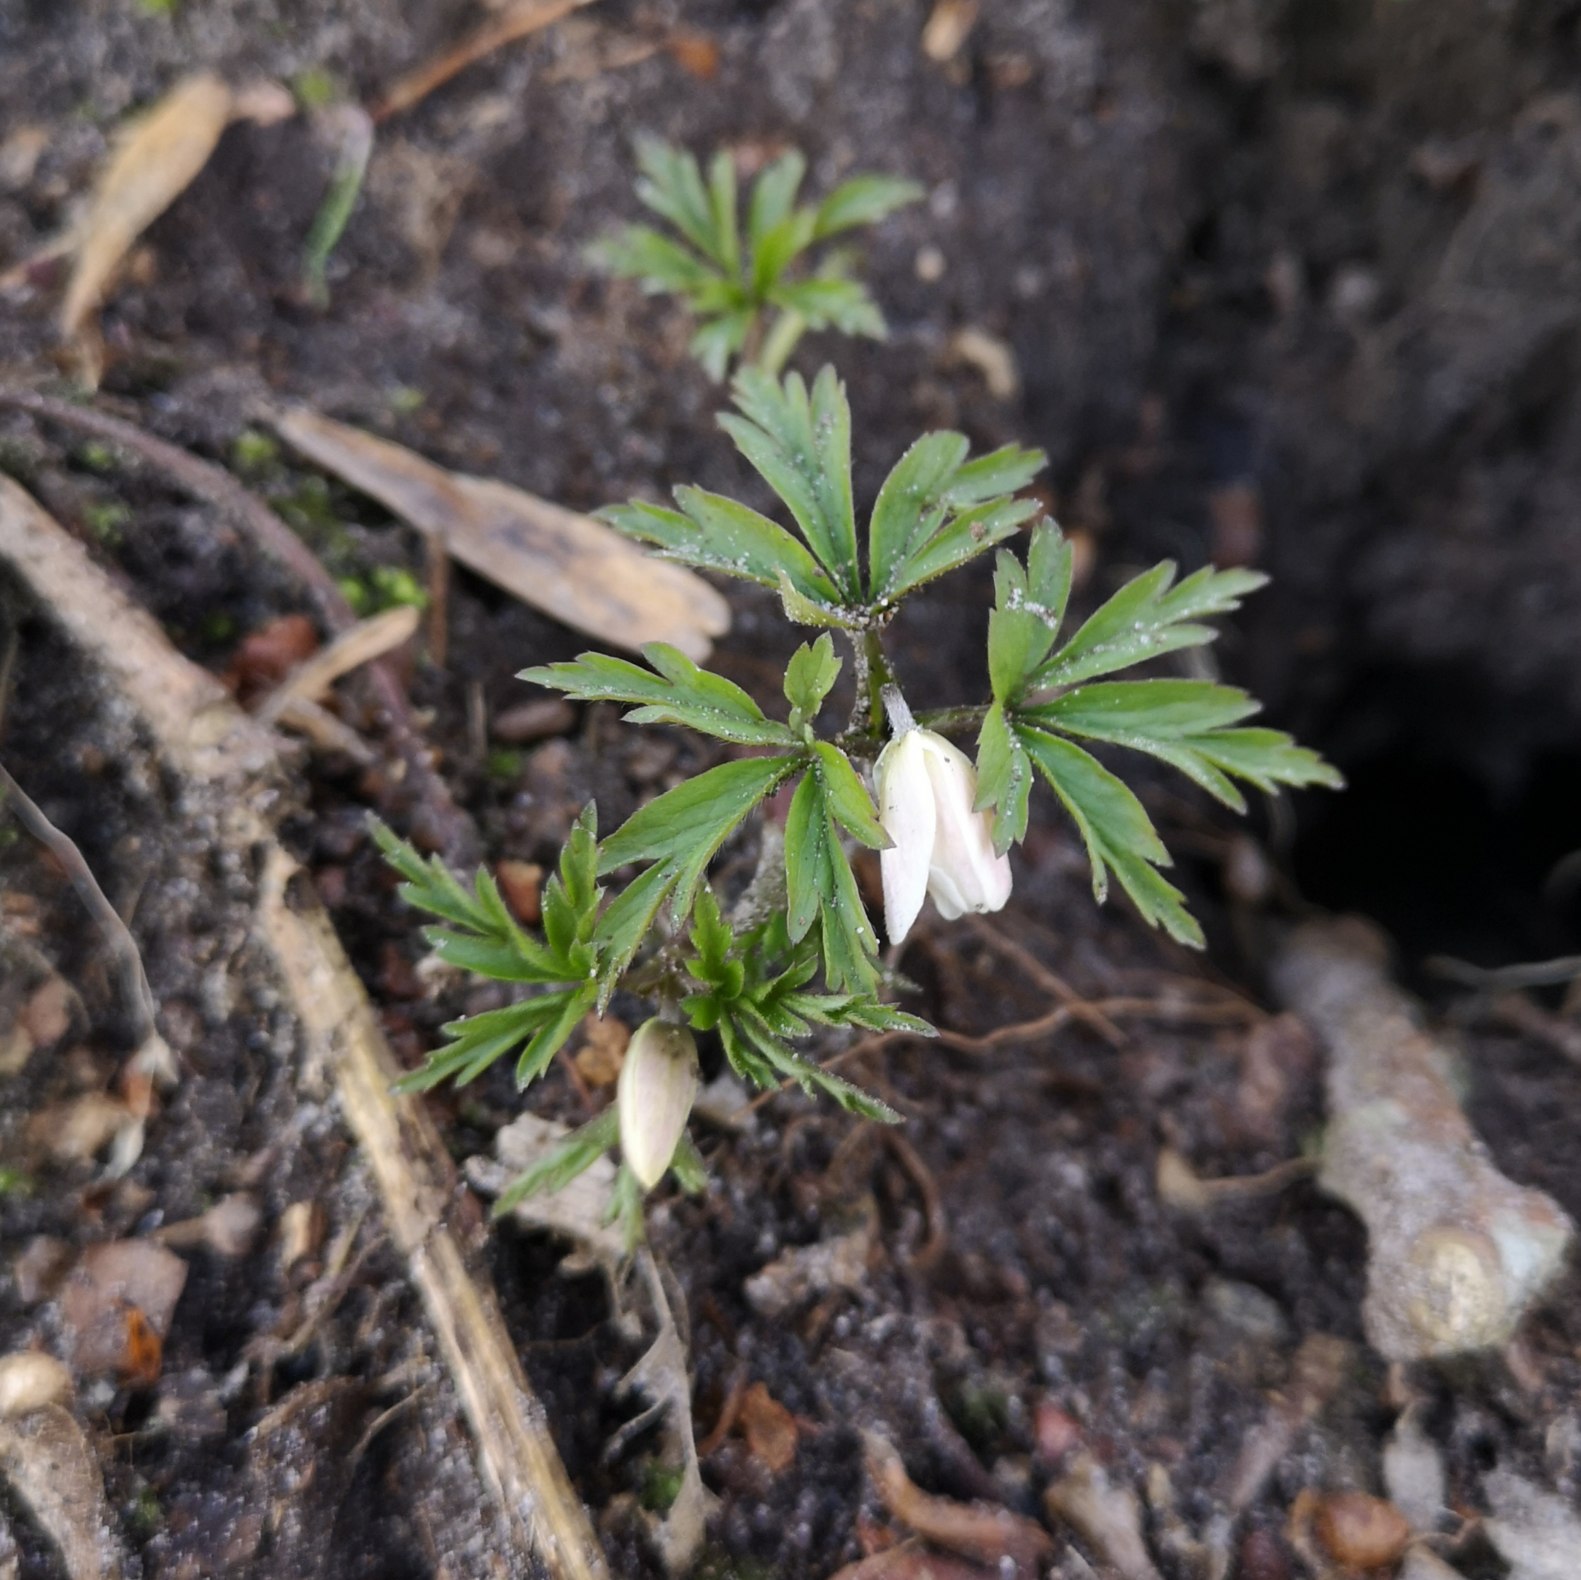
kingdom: Plantae
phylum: Tracheophyta
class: Magnoliopsida
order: Ranunculales
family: Ranunculaceae
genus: Anemone
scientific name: Anemone nemorosa
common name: Hvid anemone
